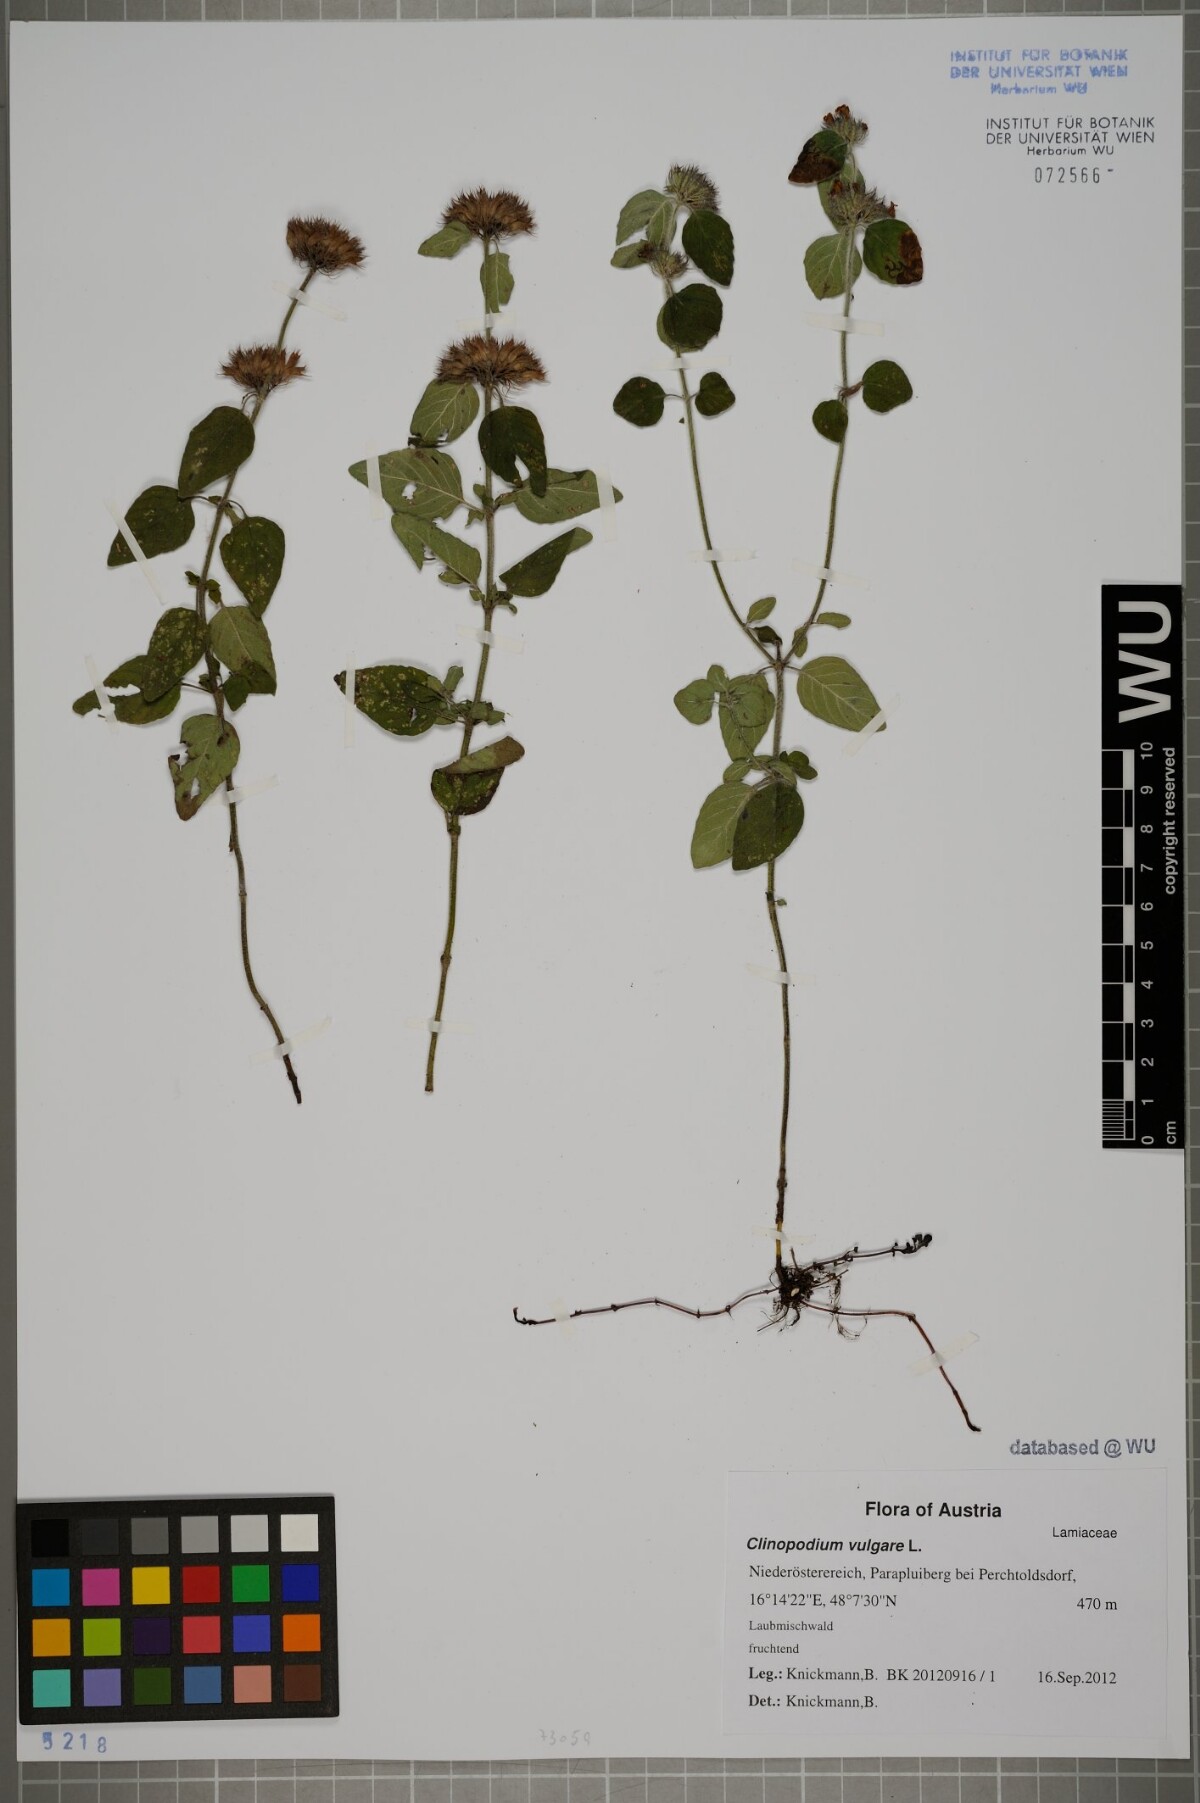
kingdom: Plantae
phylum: Tracheophyta
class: Magnoliopsida
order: Lamiales
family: Lamiaceae
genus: Clinopodium
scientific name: Clinopodium vulgare
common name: Wild basil
